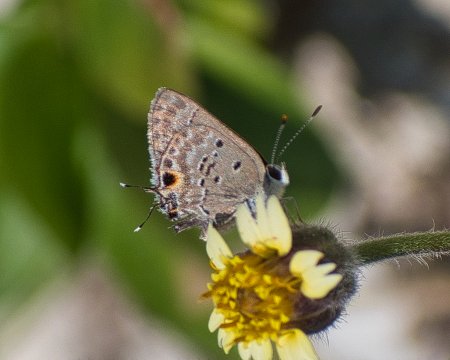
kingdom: Animalia
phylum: Arthropoda
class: Insecta
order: Lepidoptera
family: Lycaenidae
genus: Callicista
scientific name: Callicista columella
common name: Mallow Scrub-Hairstreak
